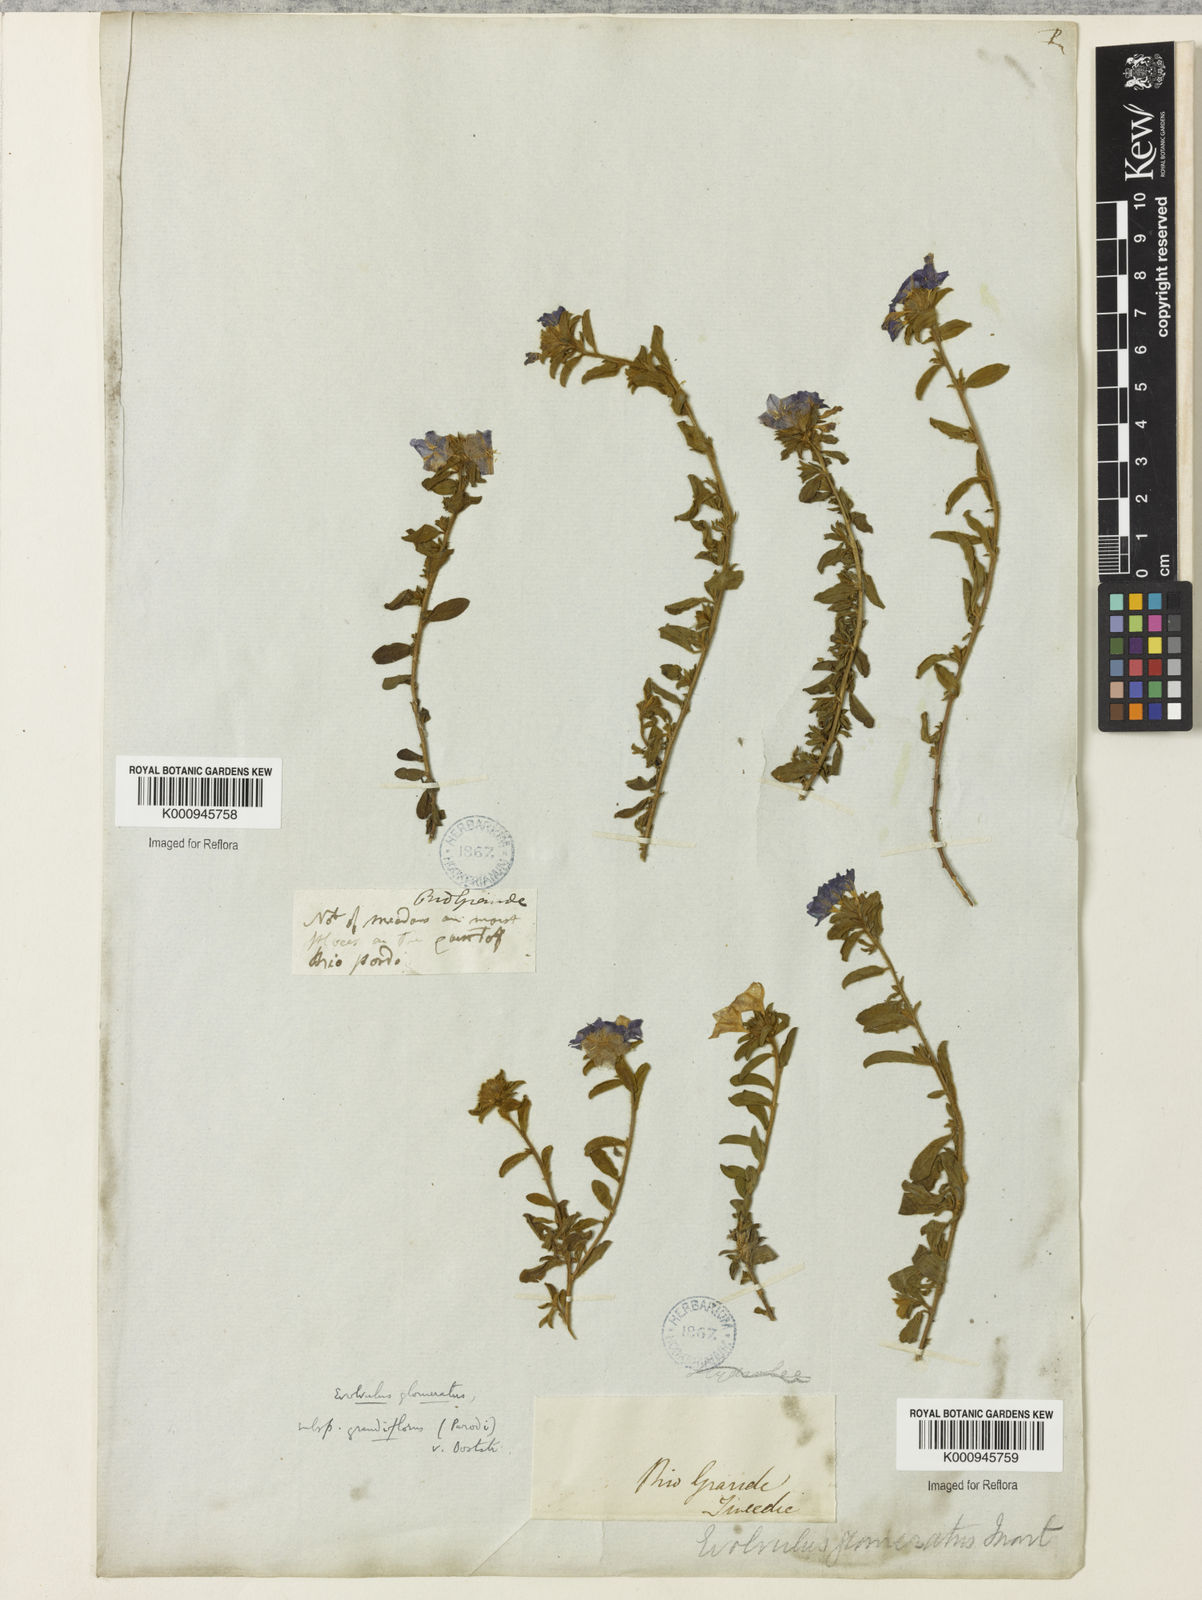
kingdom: Plantae
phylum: Tracheophyta
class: Magnoliopsida
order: Solanales
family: Convolvulaceae
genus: Evolvulus
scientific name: Evolvulus glomeratus
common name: Brazilian dwarf morning-glory
